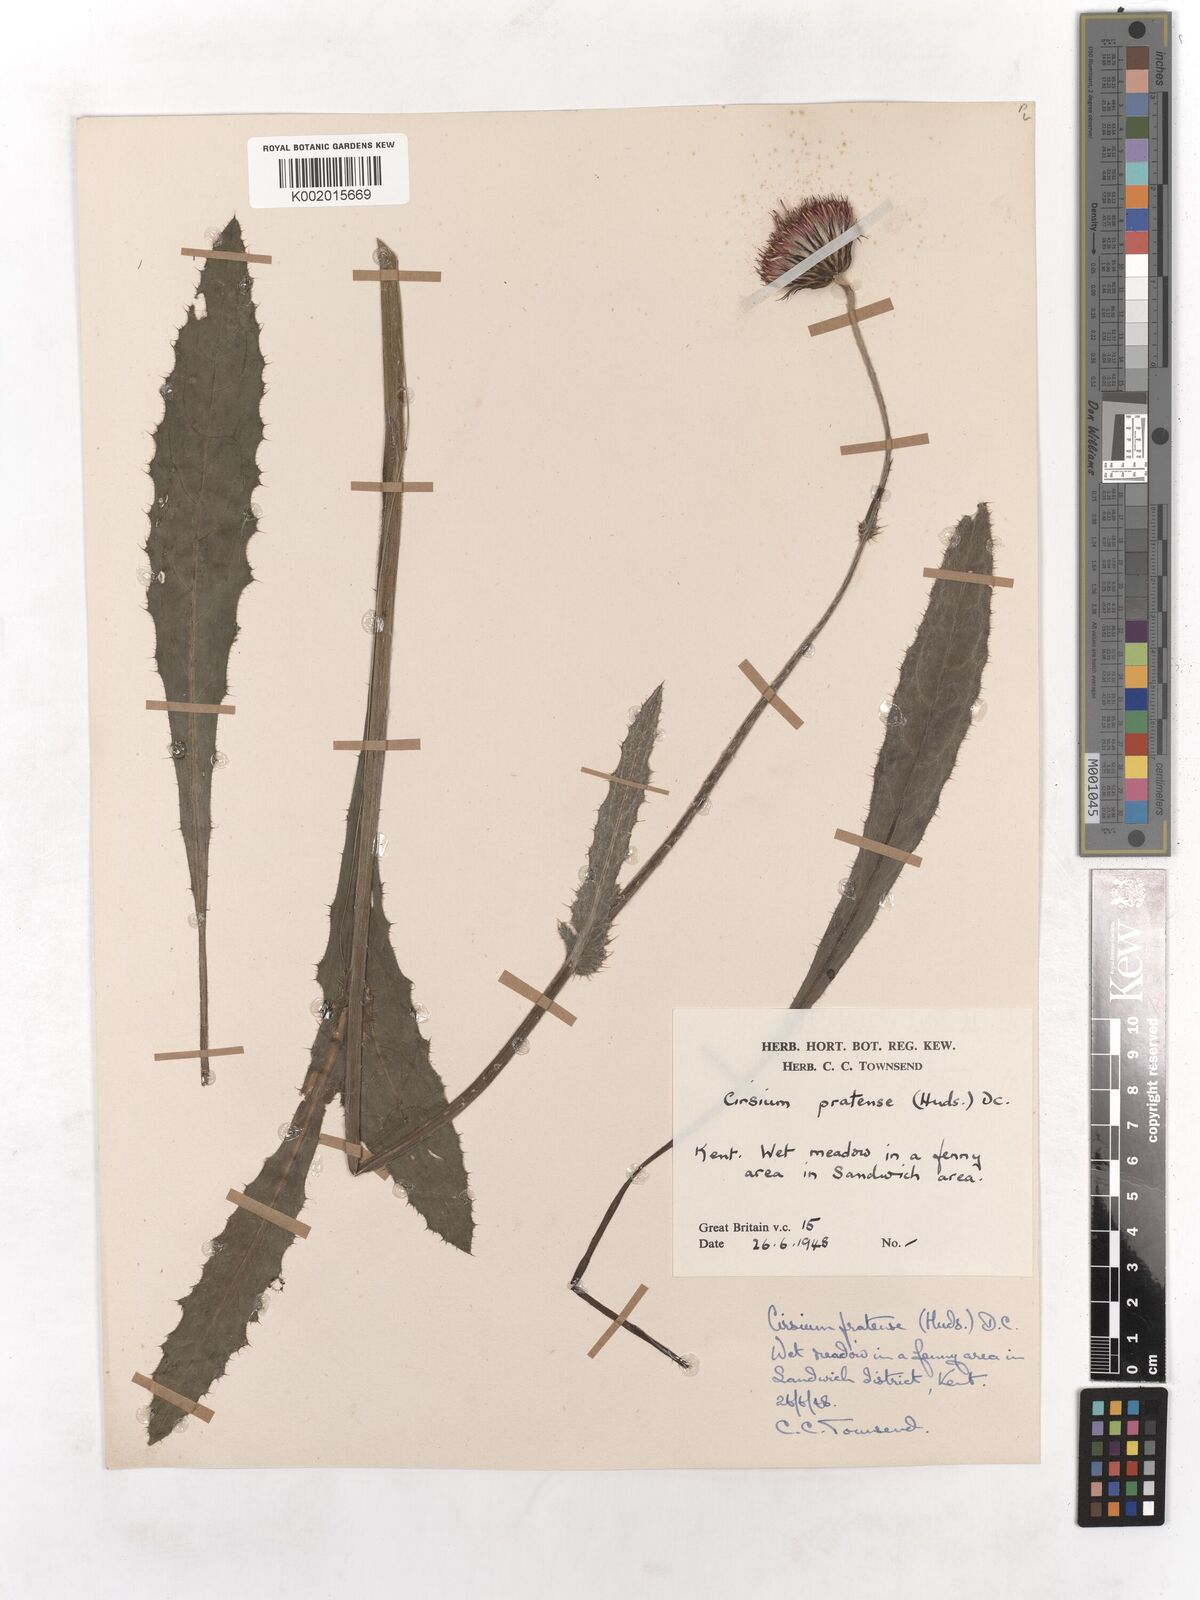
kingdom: Plantae
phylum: Tracheophyta
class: Magnoliopsida
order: Asterales
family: Asteraceae
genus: Cirsium
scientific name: Cirsium dissectum
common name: Meadow thistle
